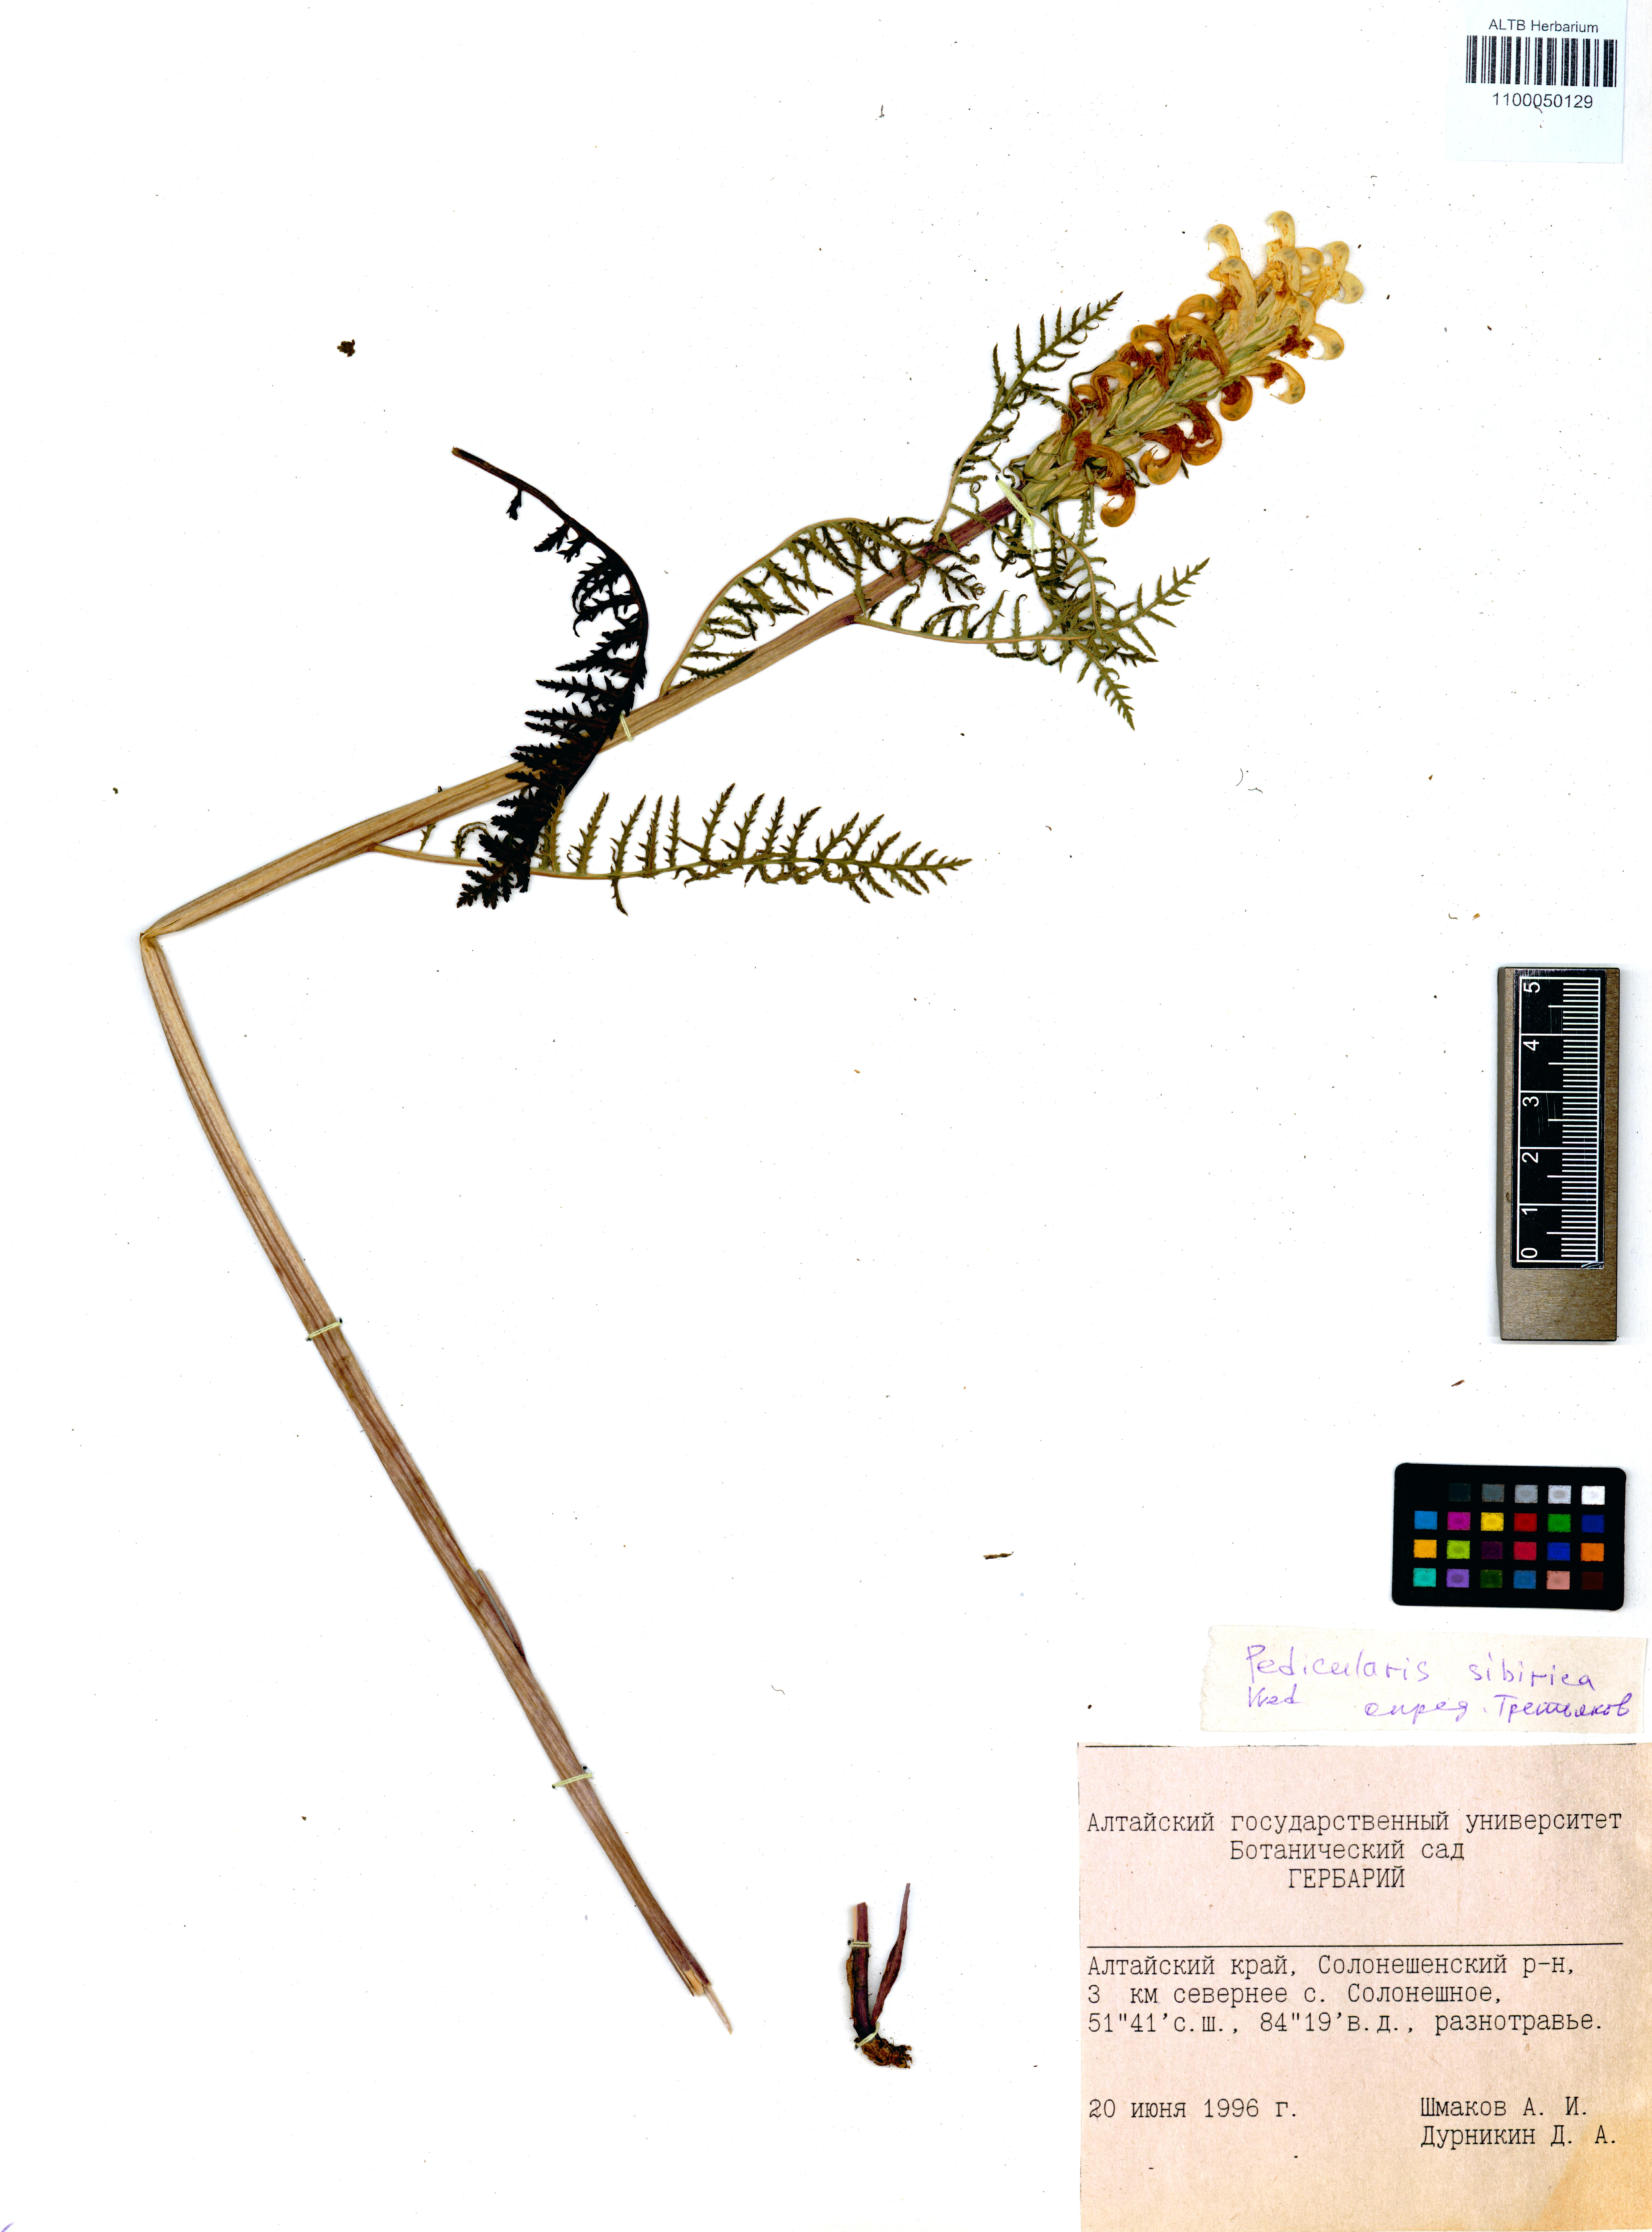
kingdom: Plantae
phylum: Tracheophyta
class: Magnoliopsida
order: Lamiales
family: Orobanchaceae
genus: Pedicularis
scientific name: Pedicularis sibirica
